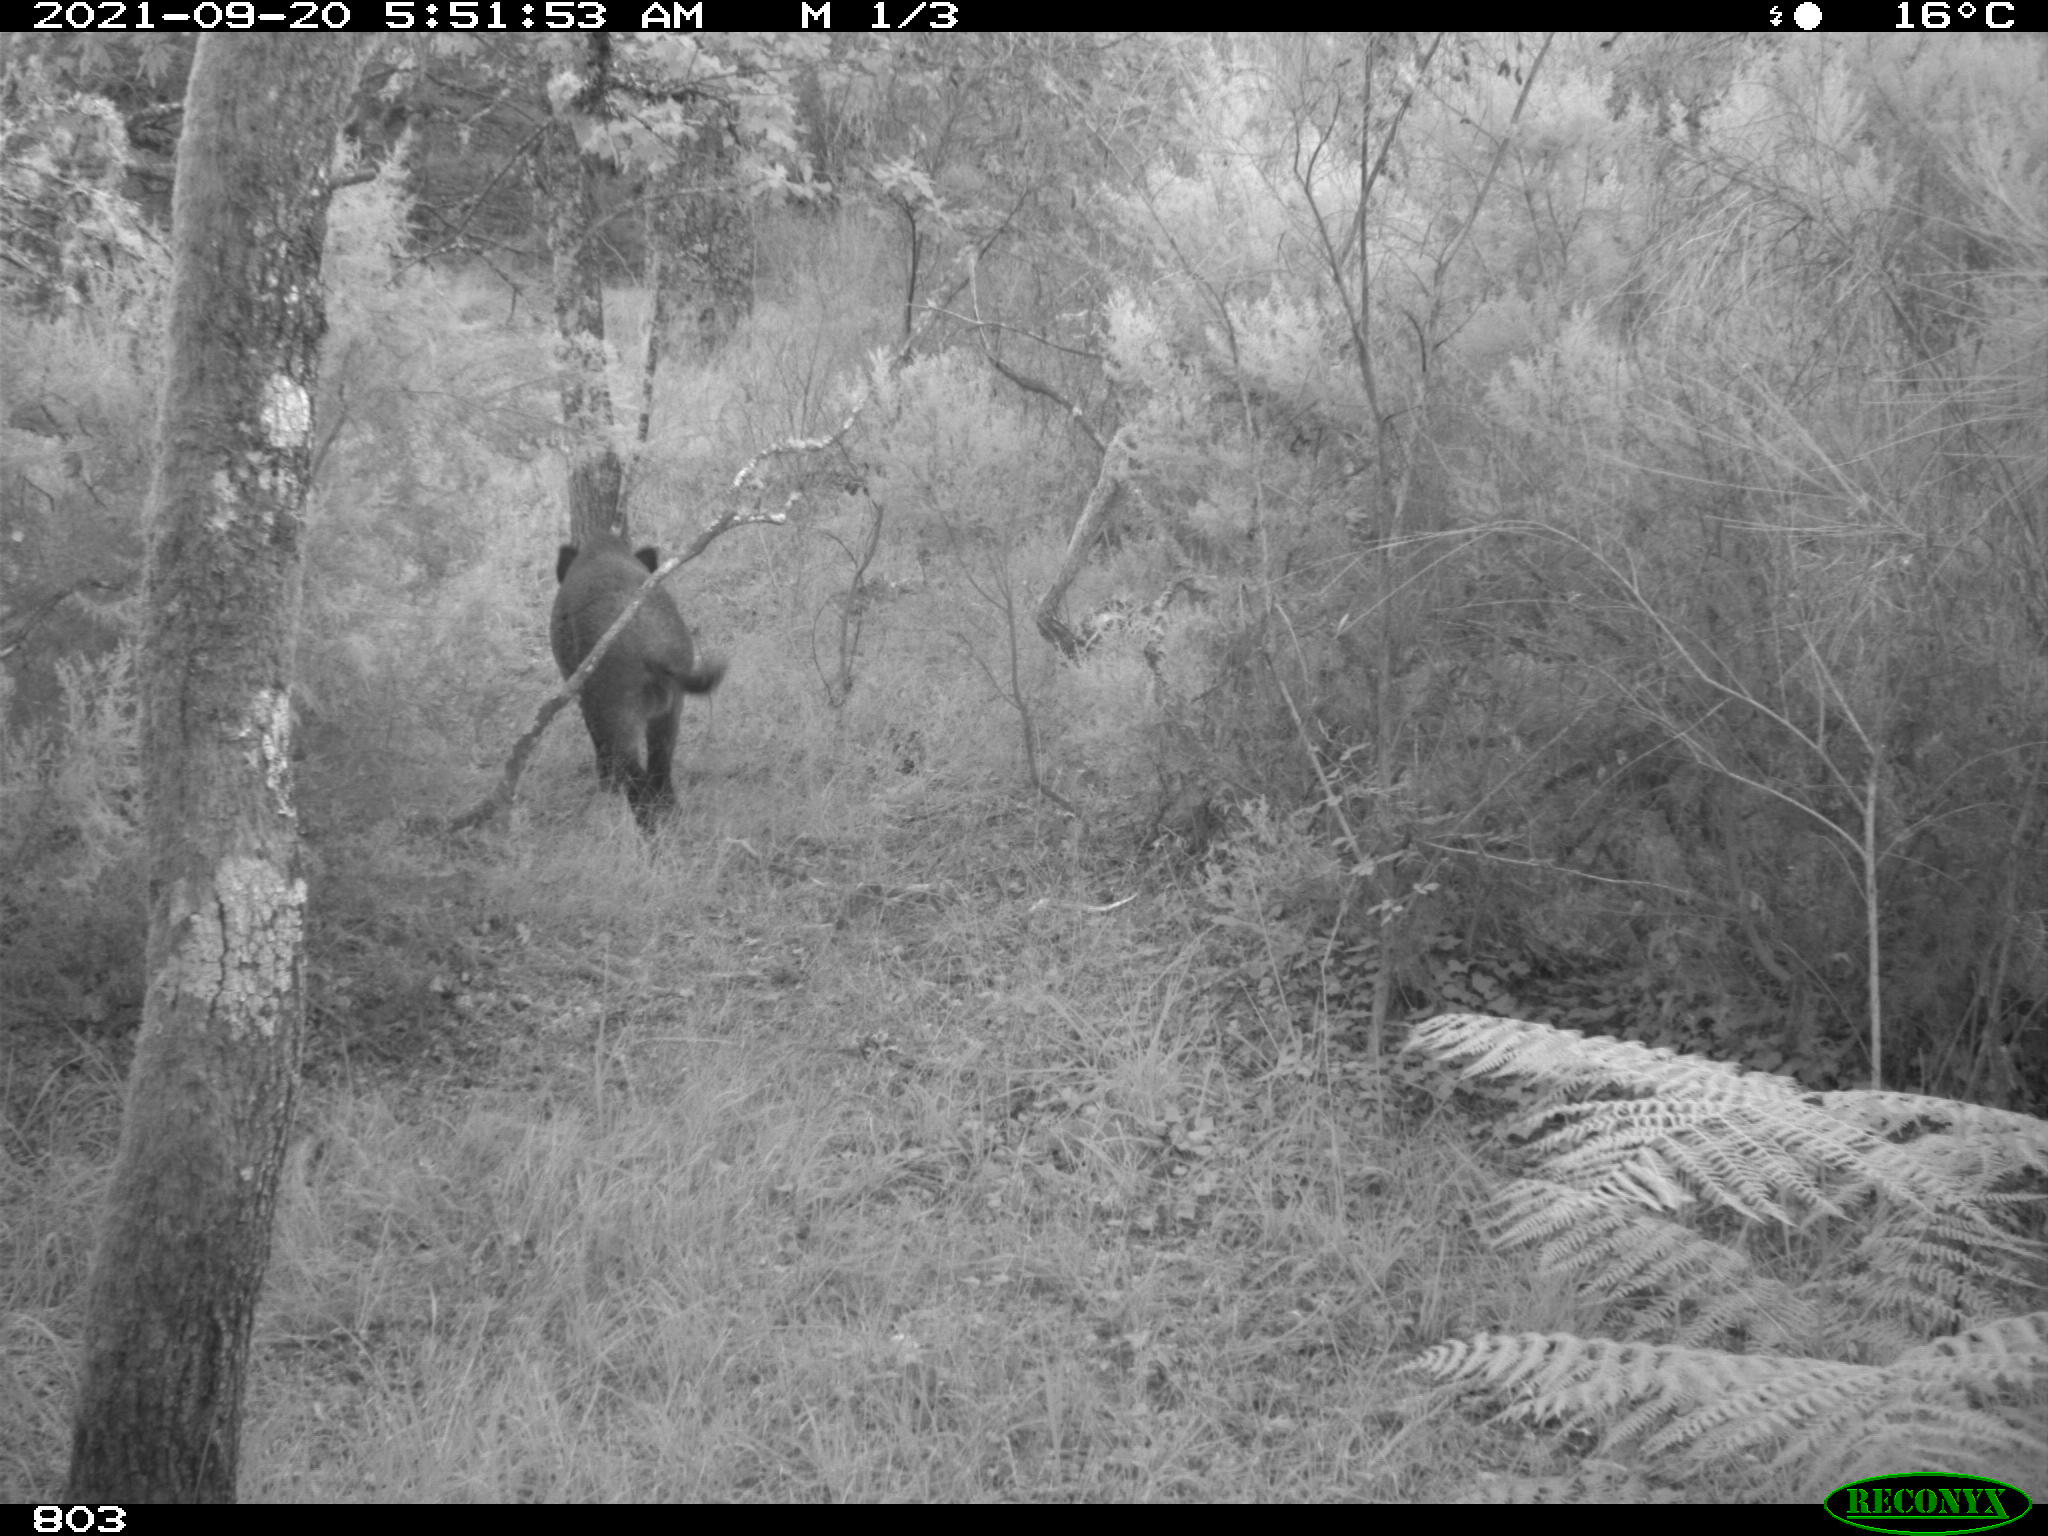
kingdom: Animalia
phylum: Chordata
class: Mammalia
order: Artiodactyla
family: Suidae
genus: Sus
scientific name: Sus scrofa
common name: Wild boar
